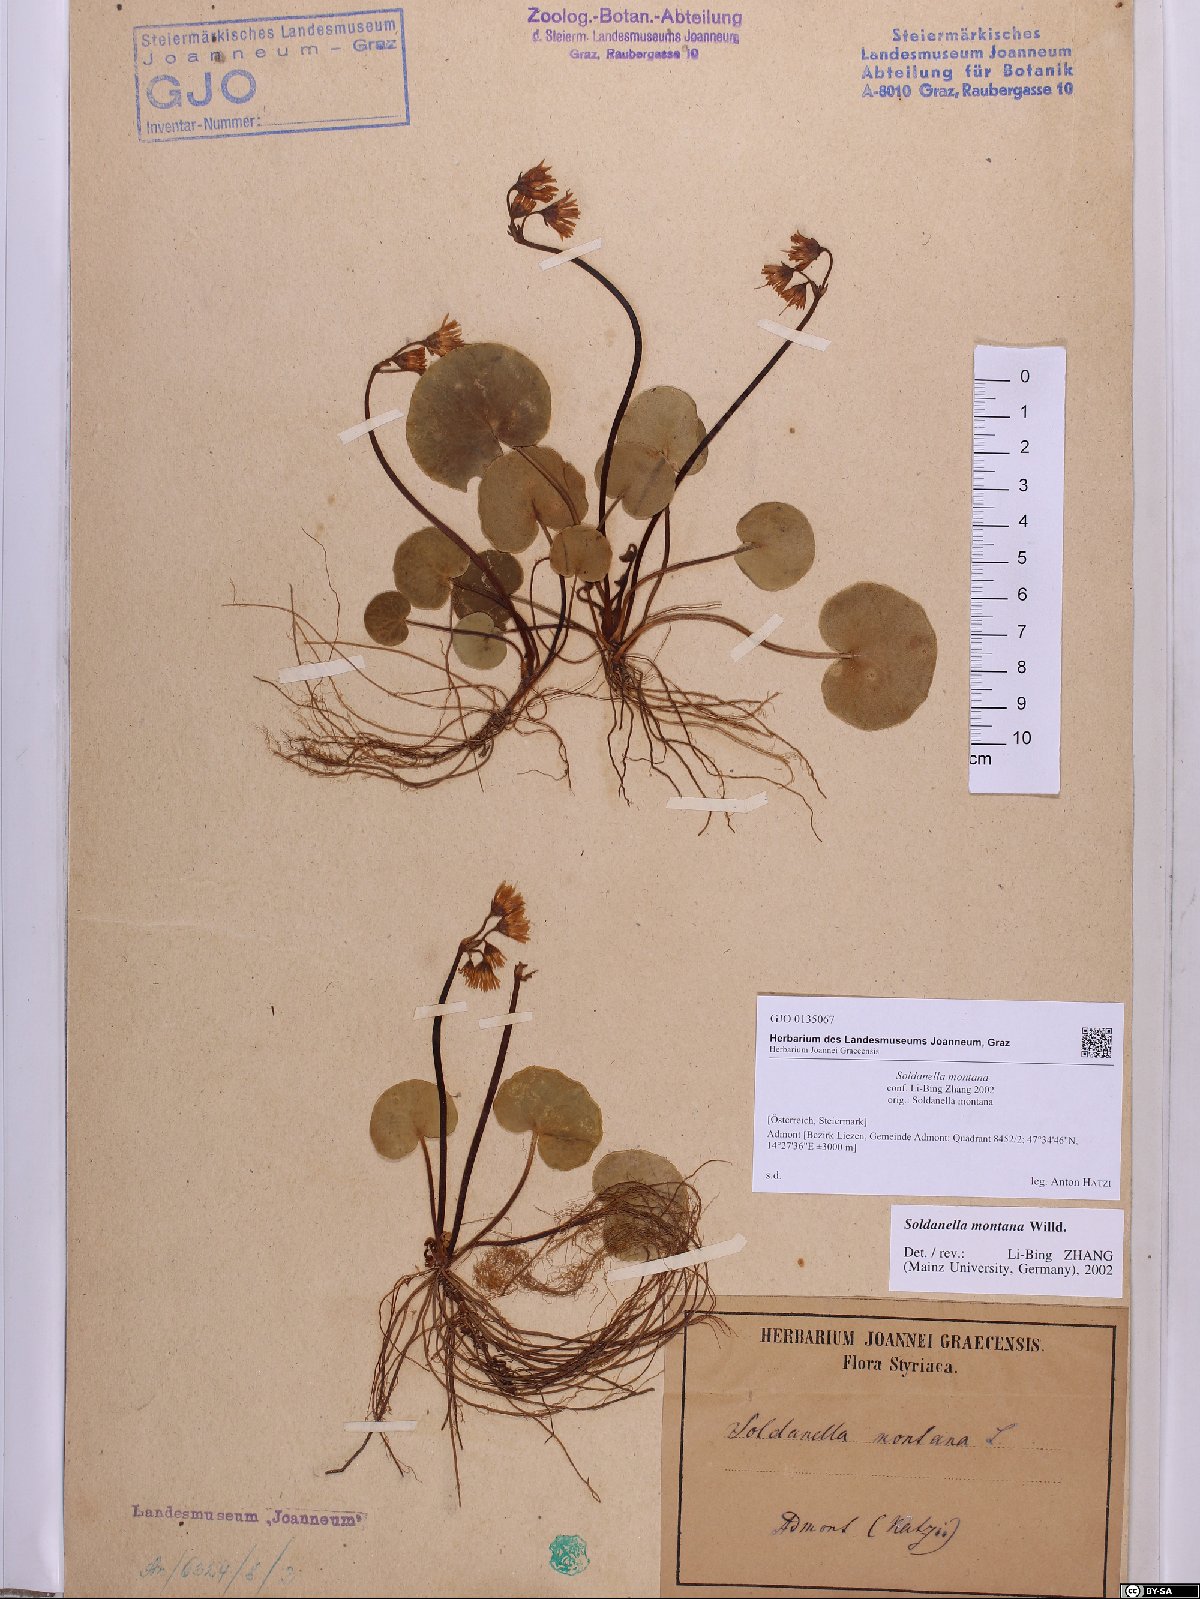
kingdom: Plantae
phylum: Tracheophyta
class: Magnoliopsida
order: Ericales
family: Primulaceae
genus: Soldanella
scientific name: Soldanella montana
